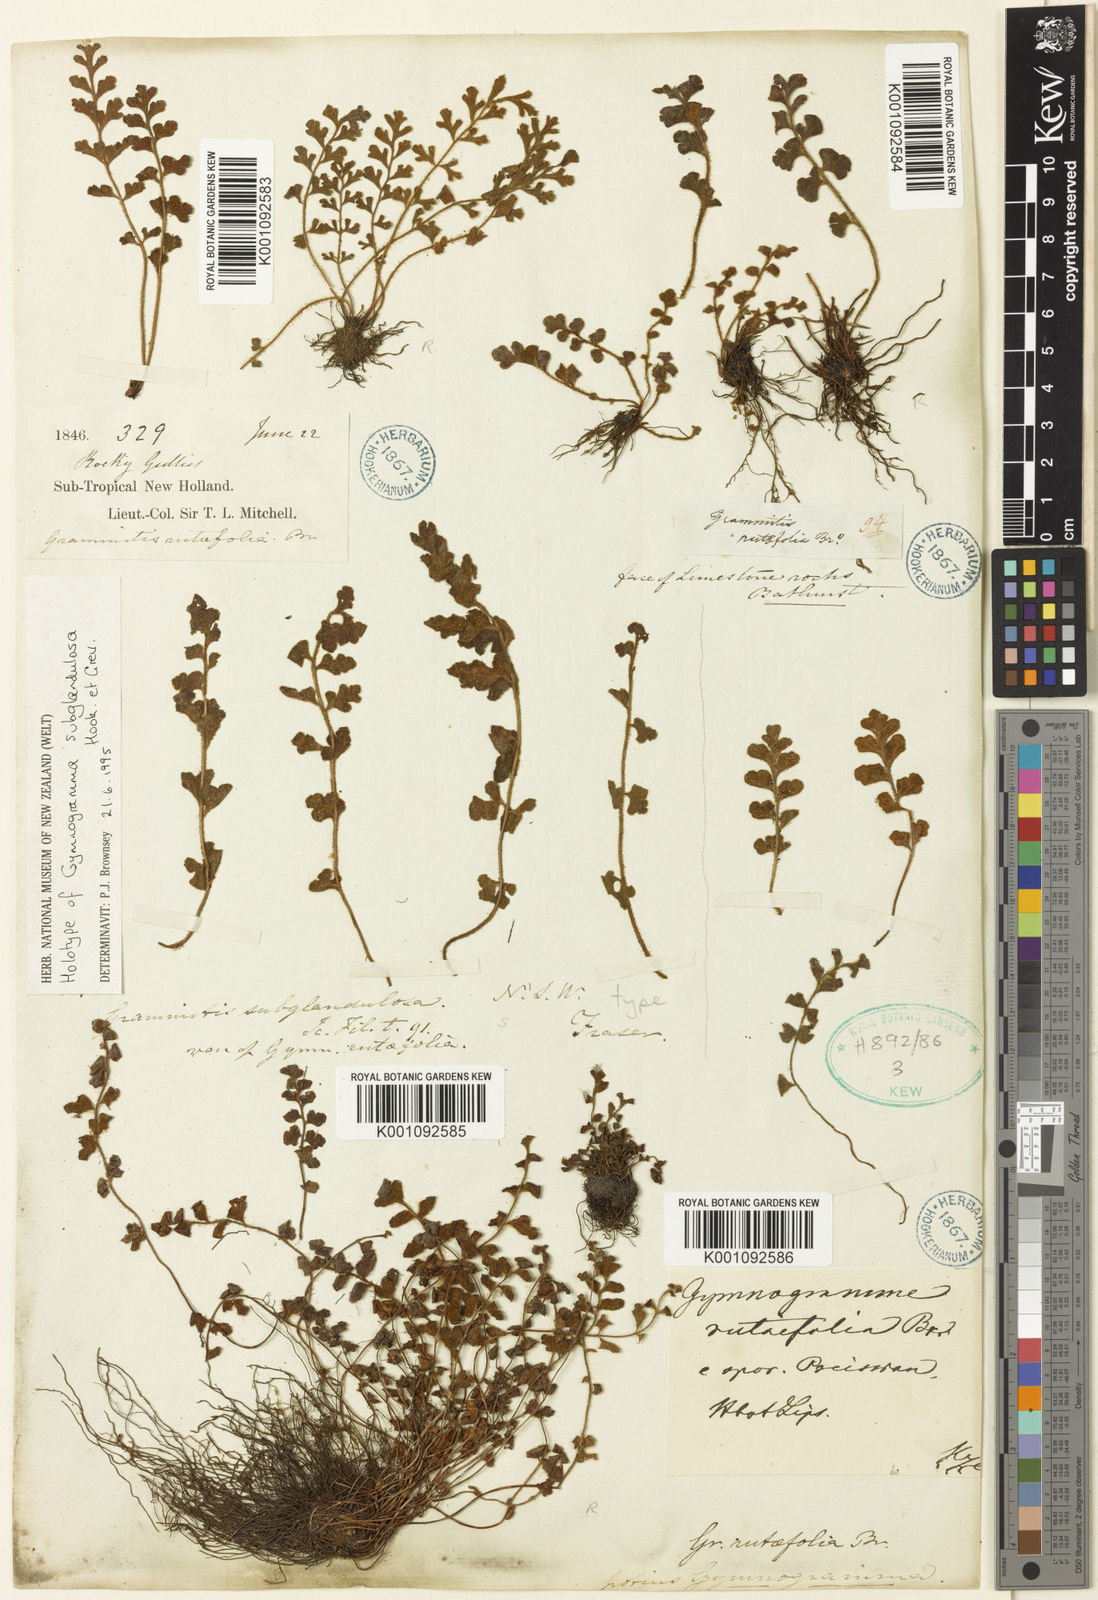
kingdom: Plantae
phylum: Tracheophyta
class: Polypodiopsida
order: Polypodiales
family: Aspleniaceae
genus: Asplenium
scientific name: Asplenium subglandulosum
